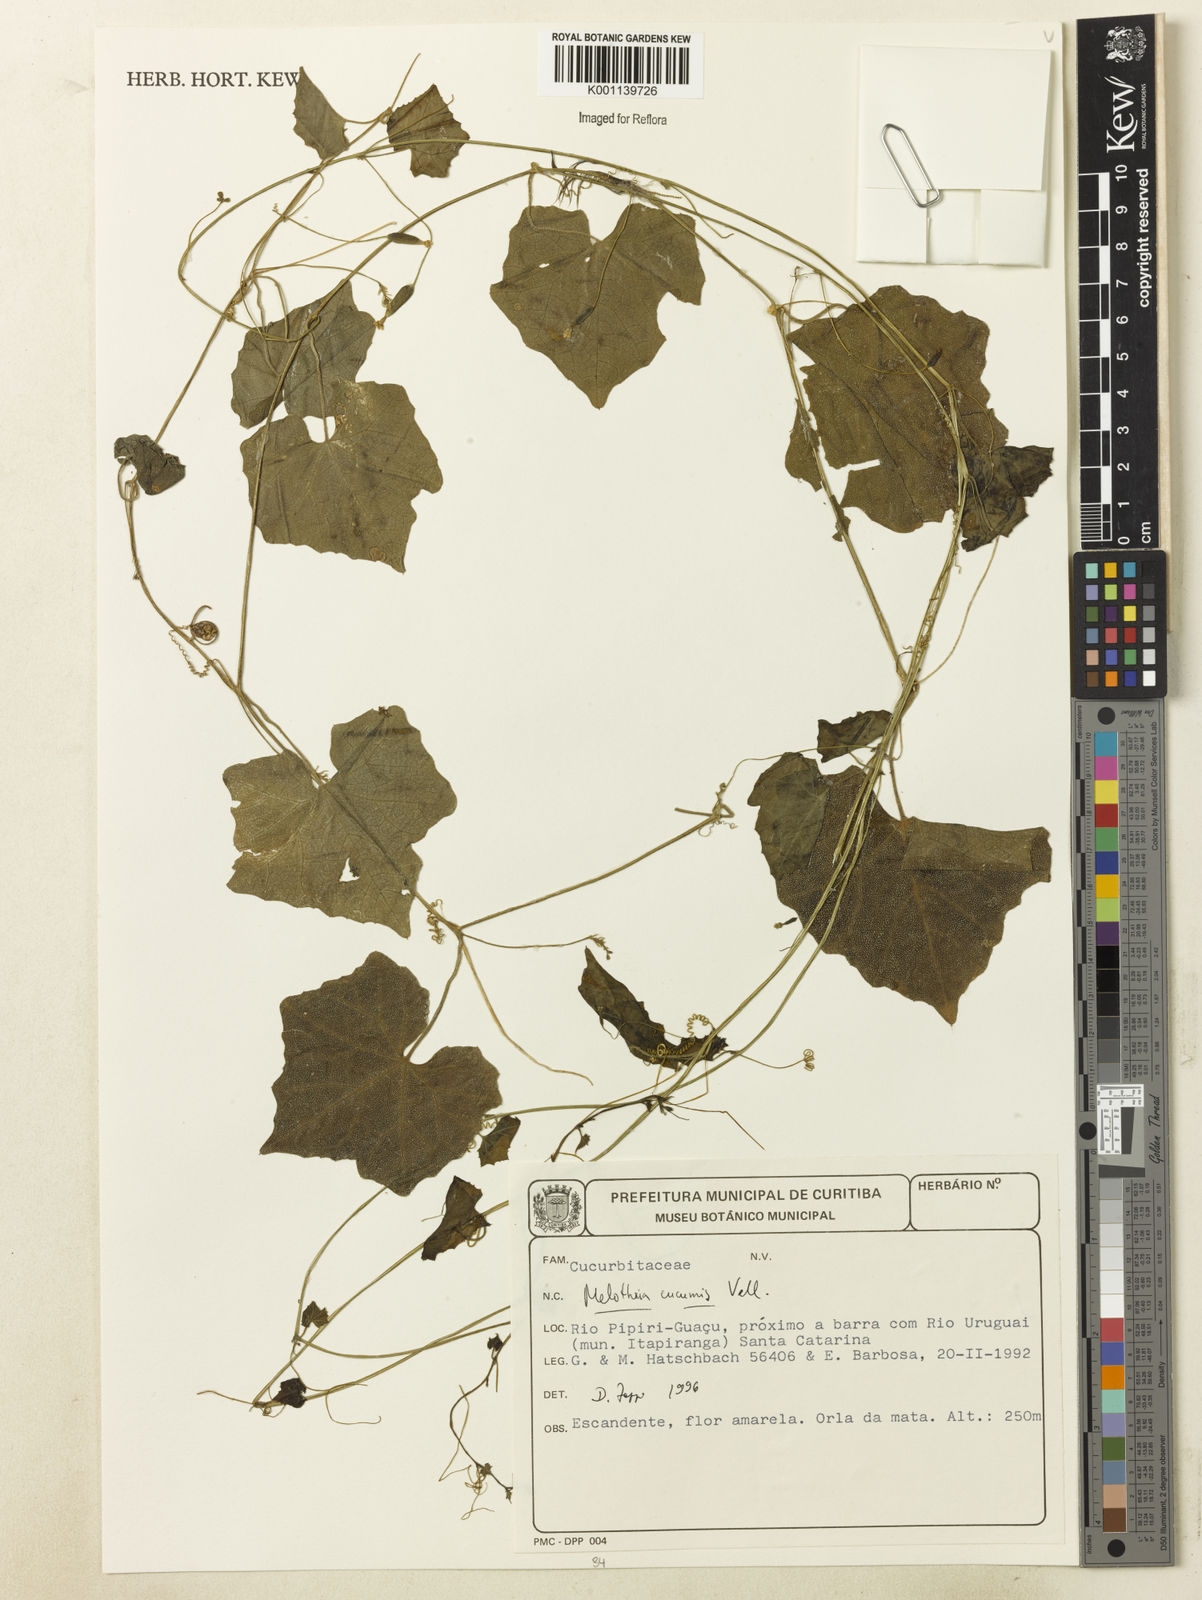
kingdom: Plantae
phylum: Tracheophyta
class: Magnoliopsida
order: Cucurbitales
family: Cucurbitaceae
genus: Melothria
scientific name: Melothria cucumis
